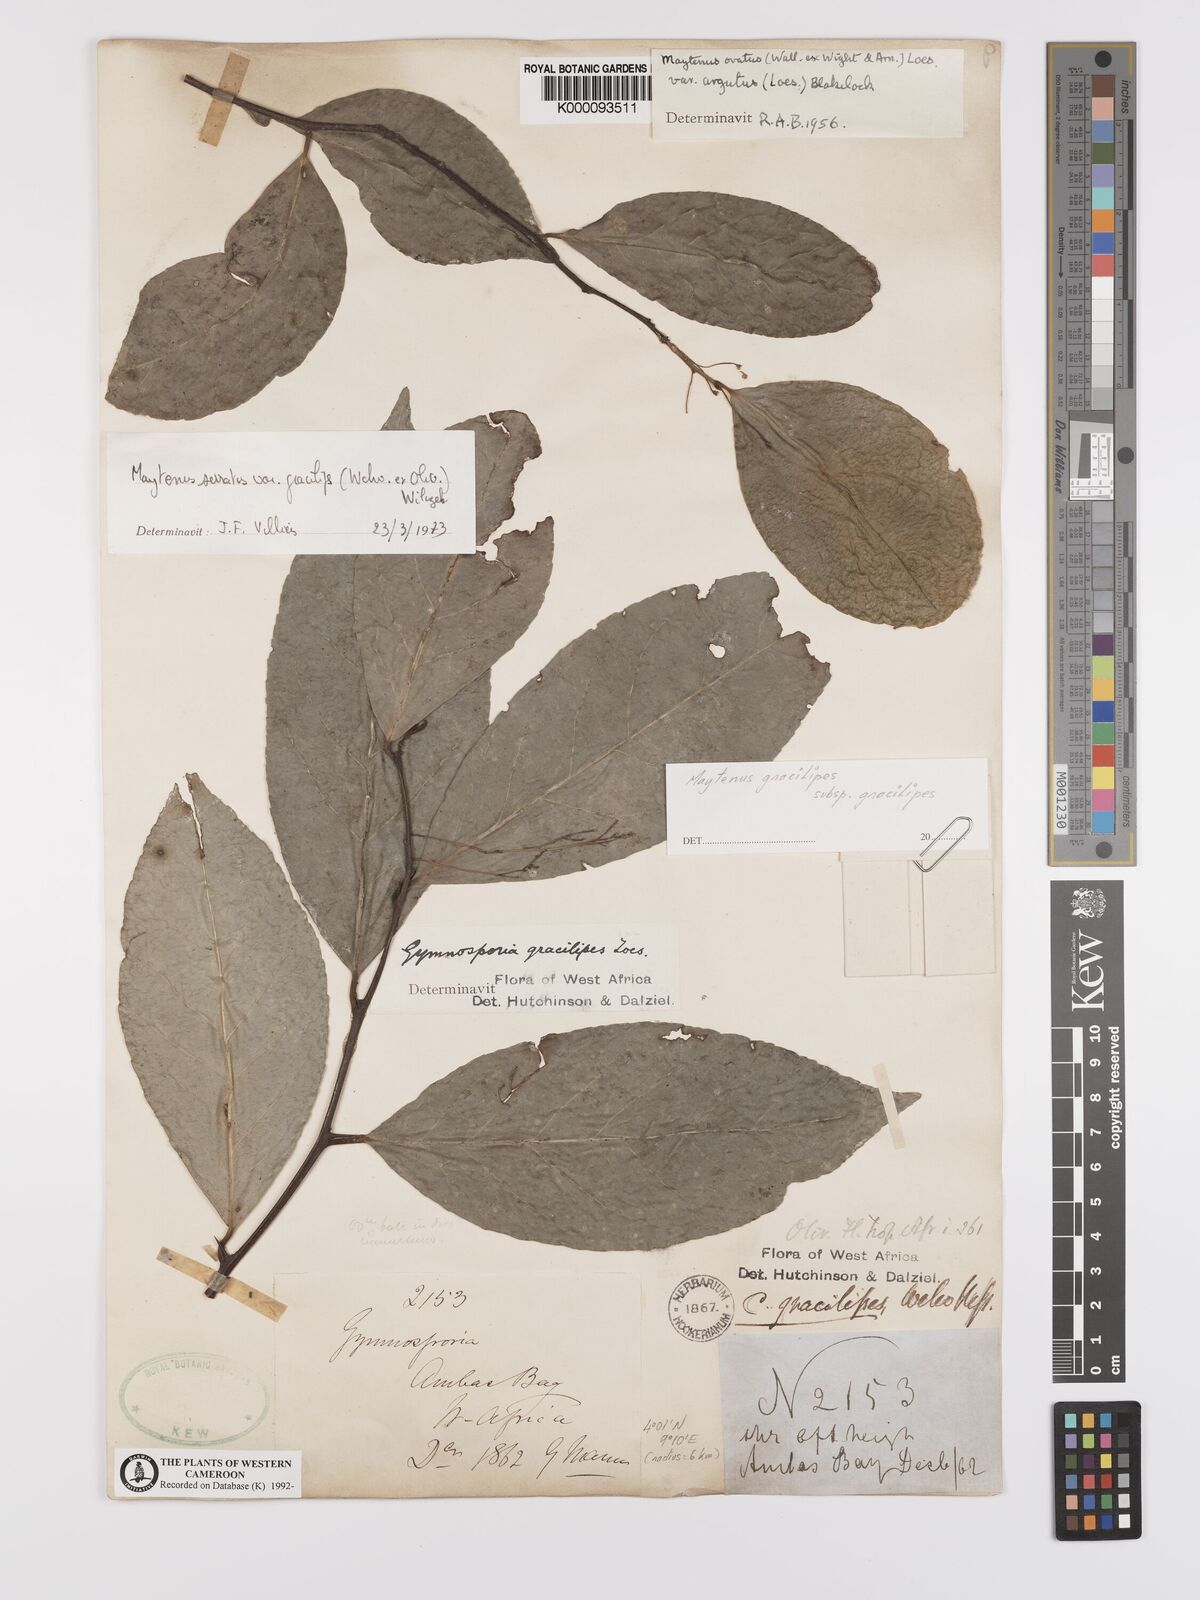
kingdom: Plantae
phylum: Tracheophyta
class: Magnoliopsida
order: Celastrales
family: Celastraceae
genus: Gymnosporia
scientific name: Gymnosporia gracilipes
